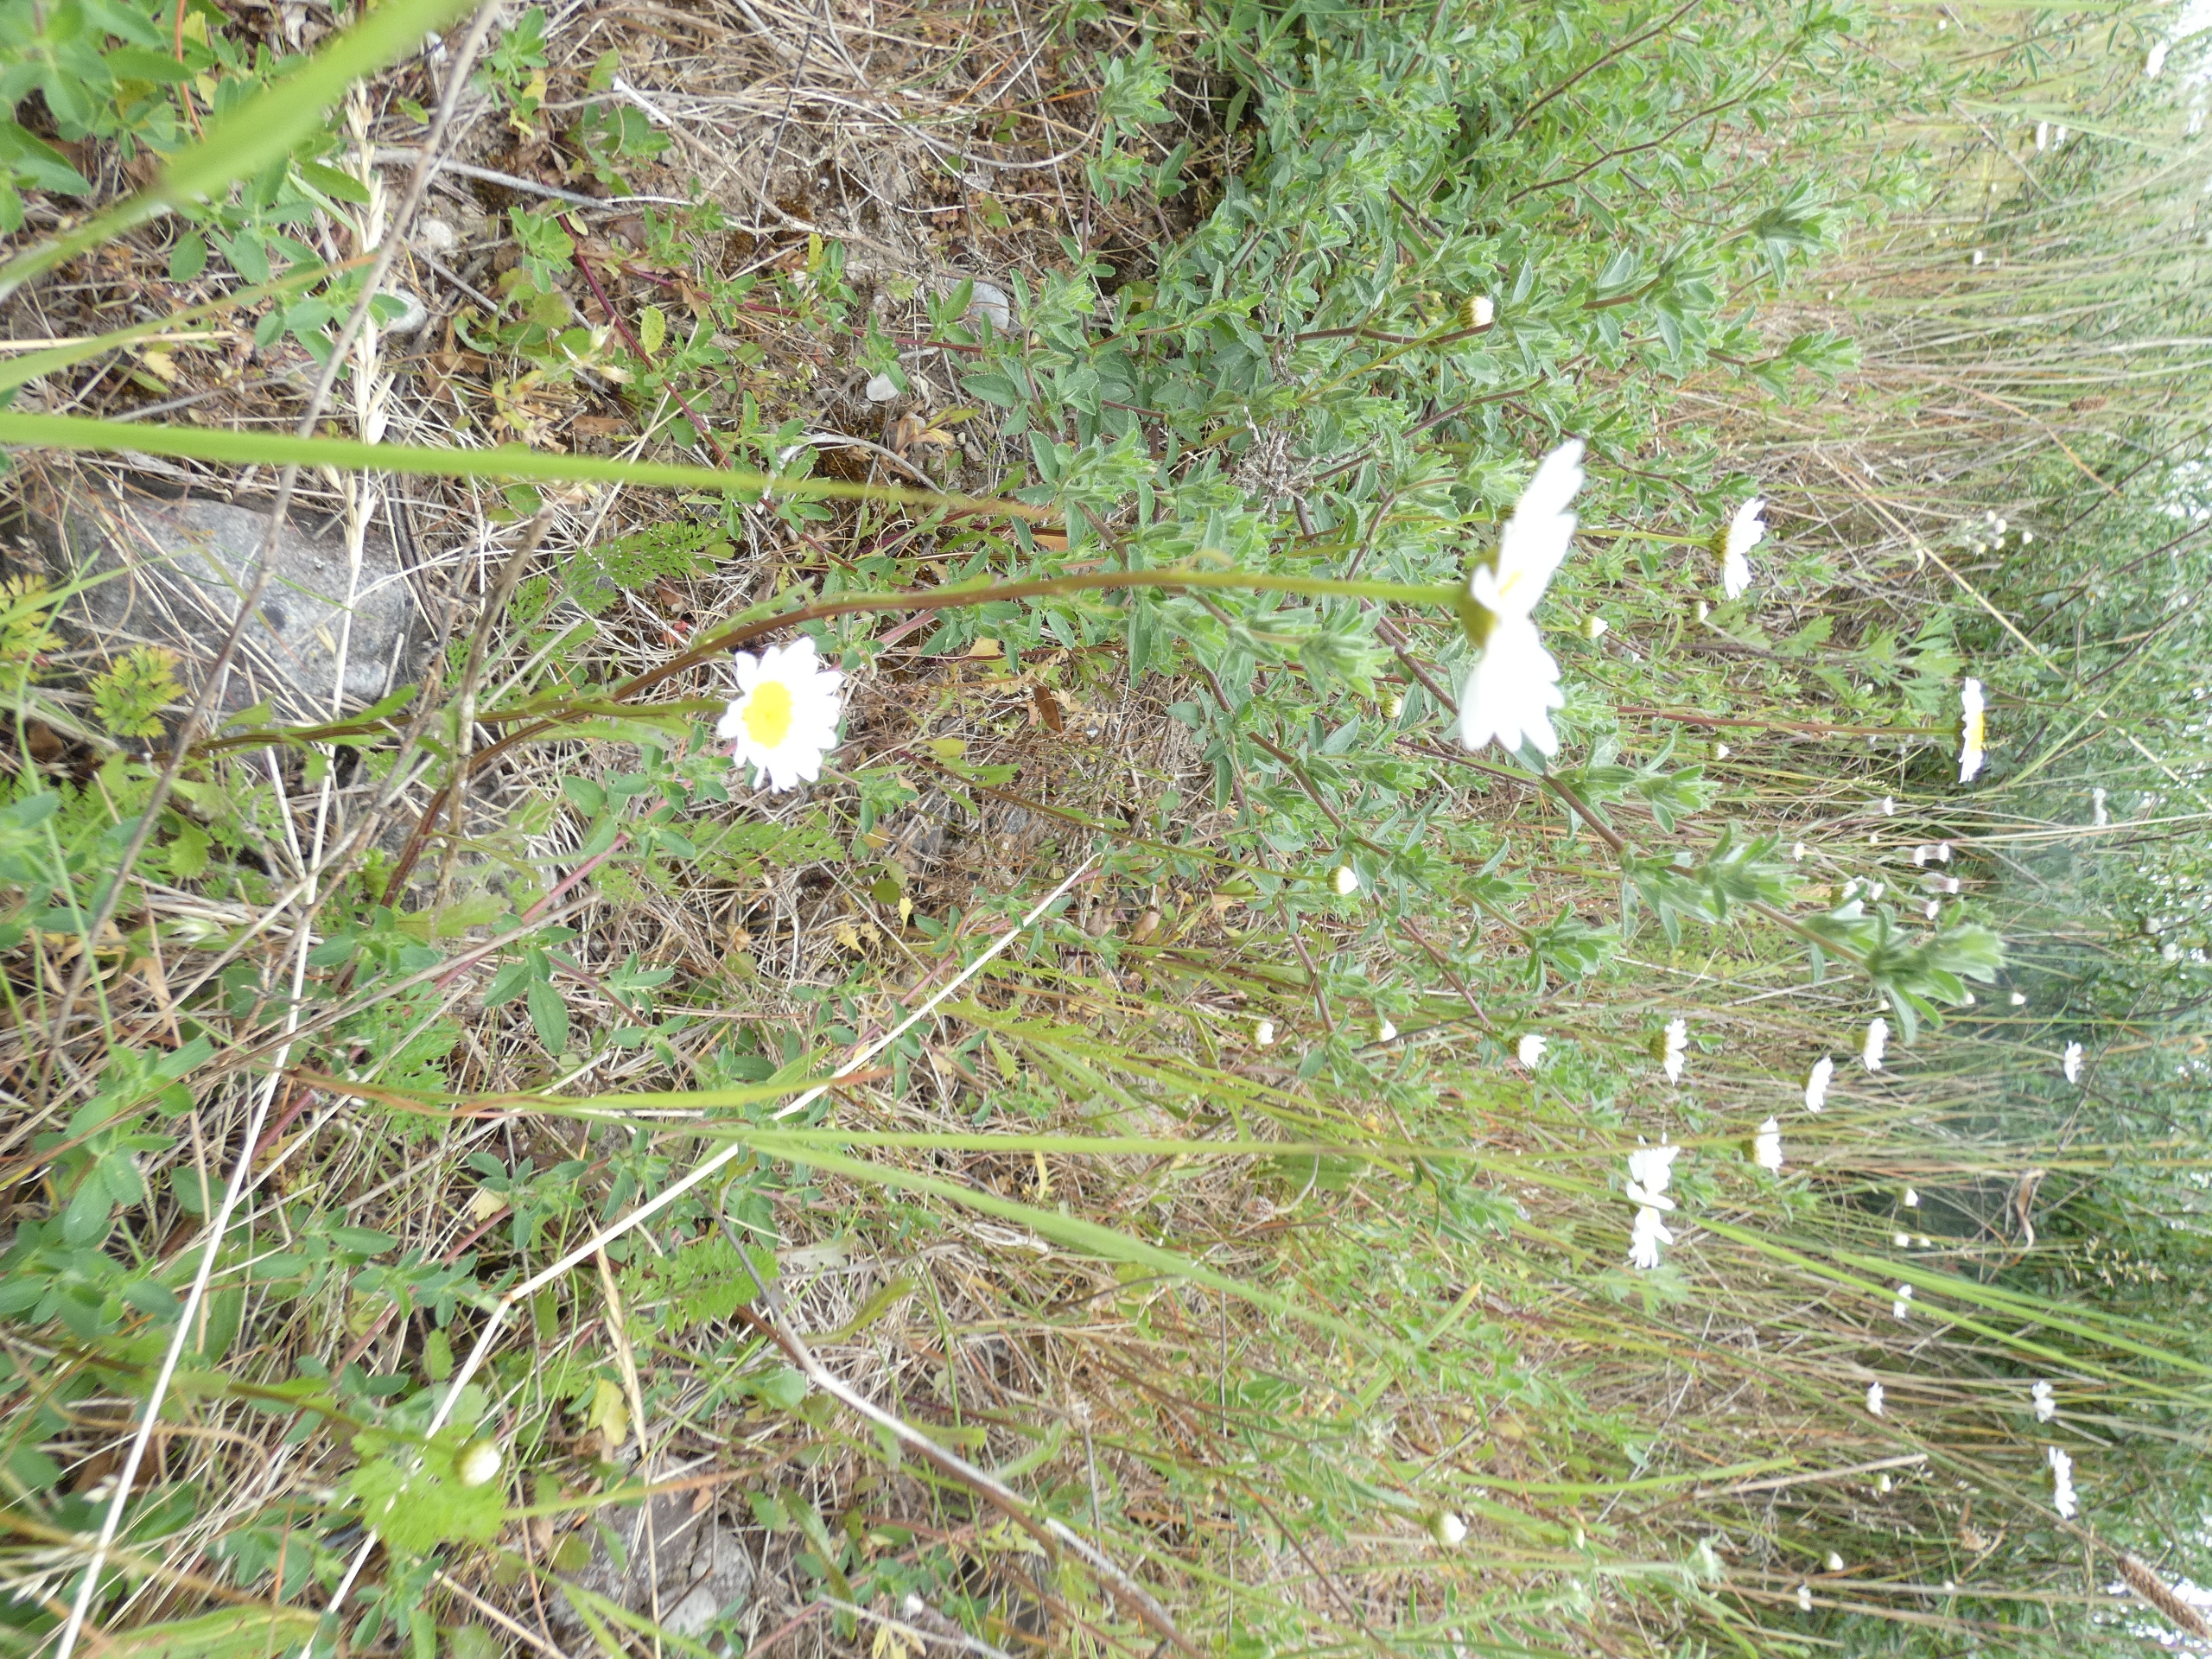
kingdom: Plantae
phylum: Tracheophyta
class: Magnoliopsida
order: Asterales
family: Asteraceae
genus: Leucanthemum
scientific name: Leucanthemum vulgare
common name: Hvid okseøje
